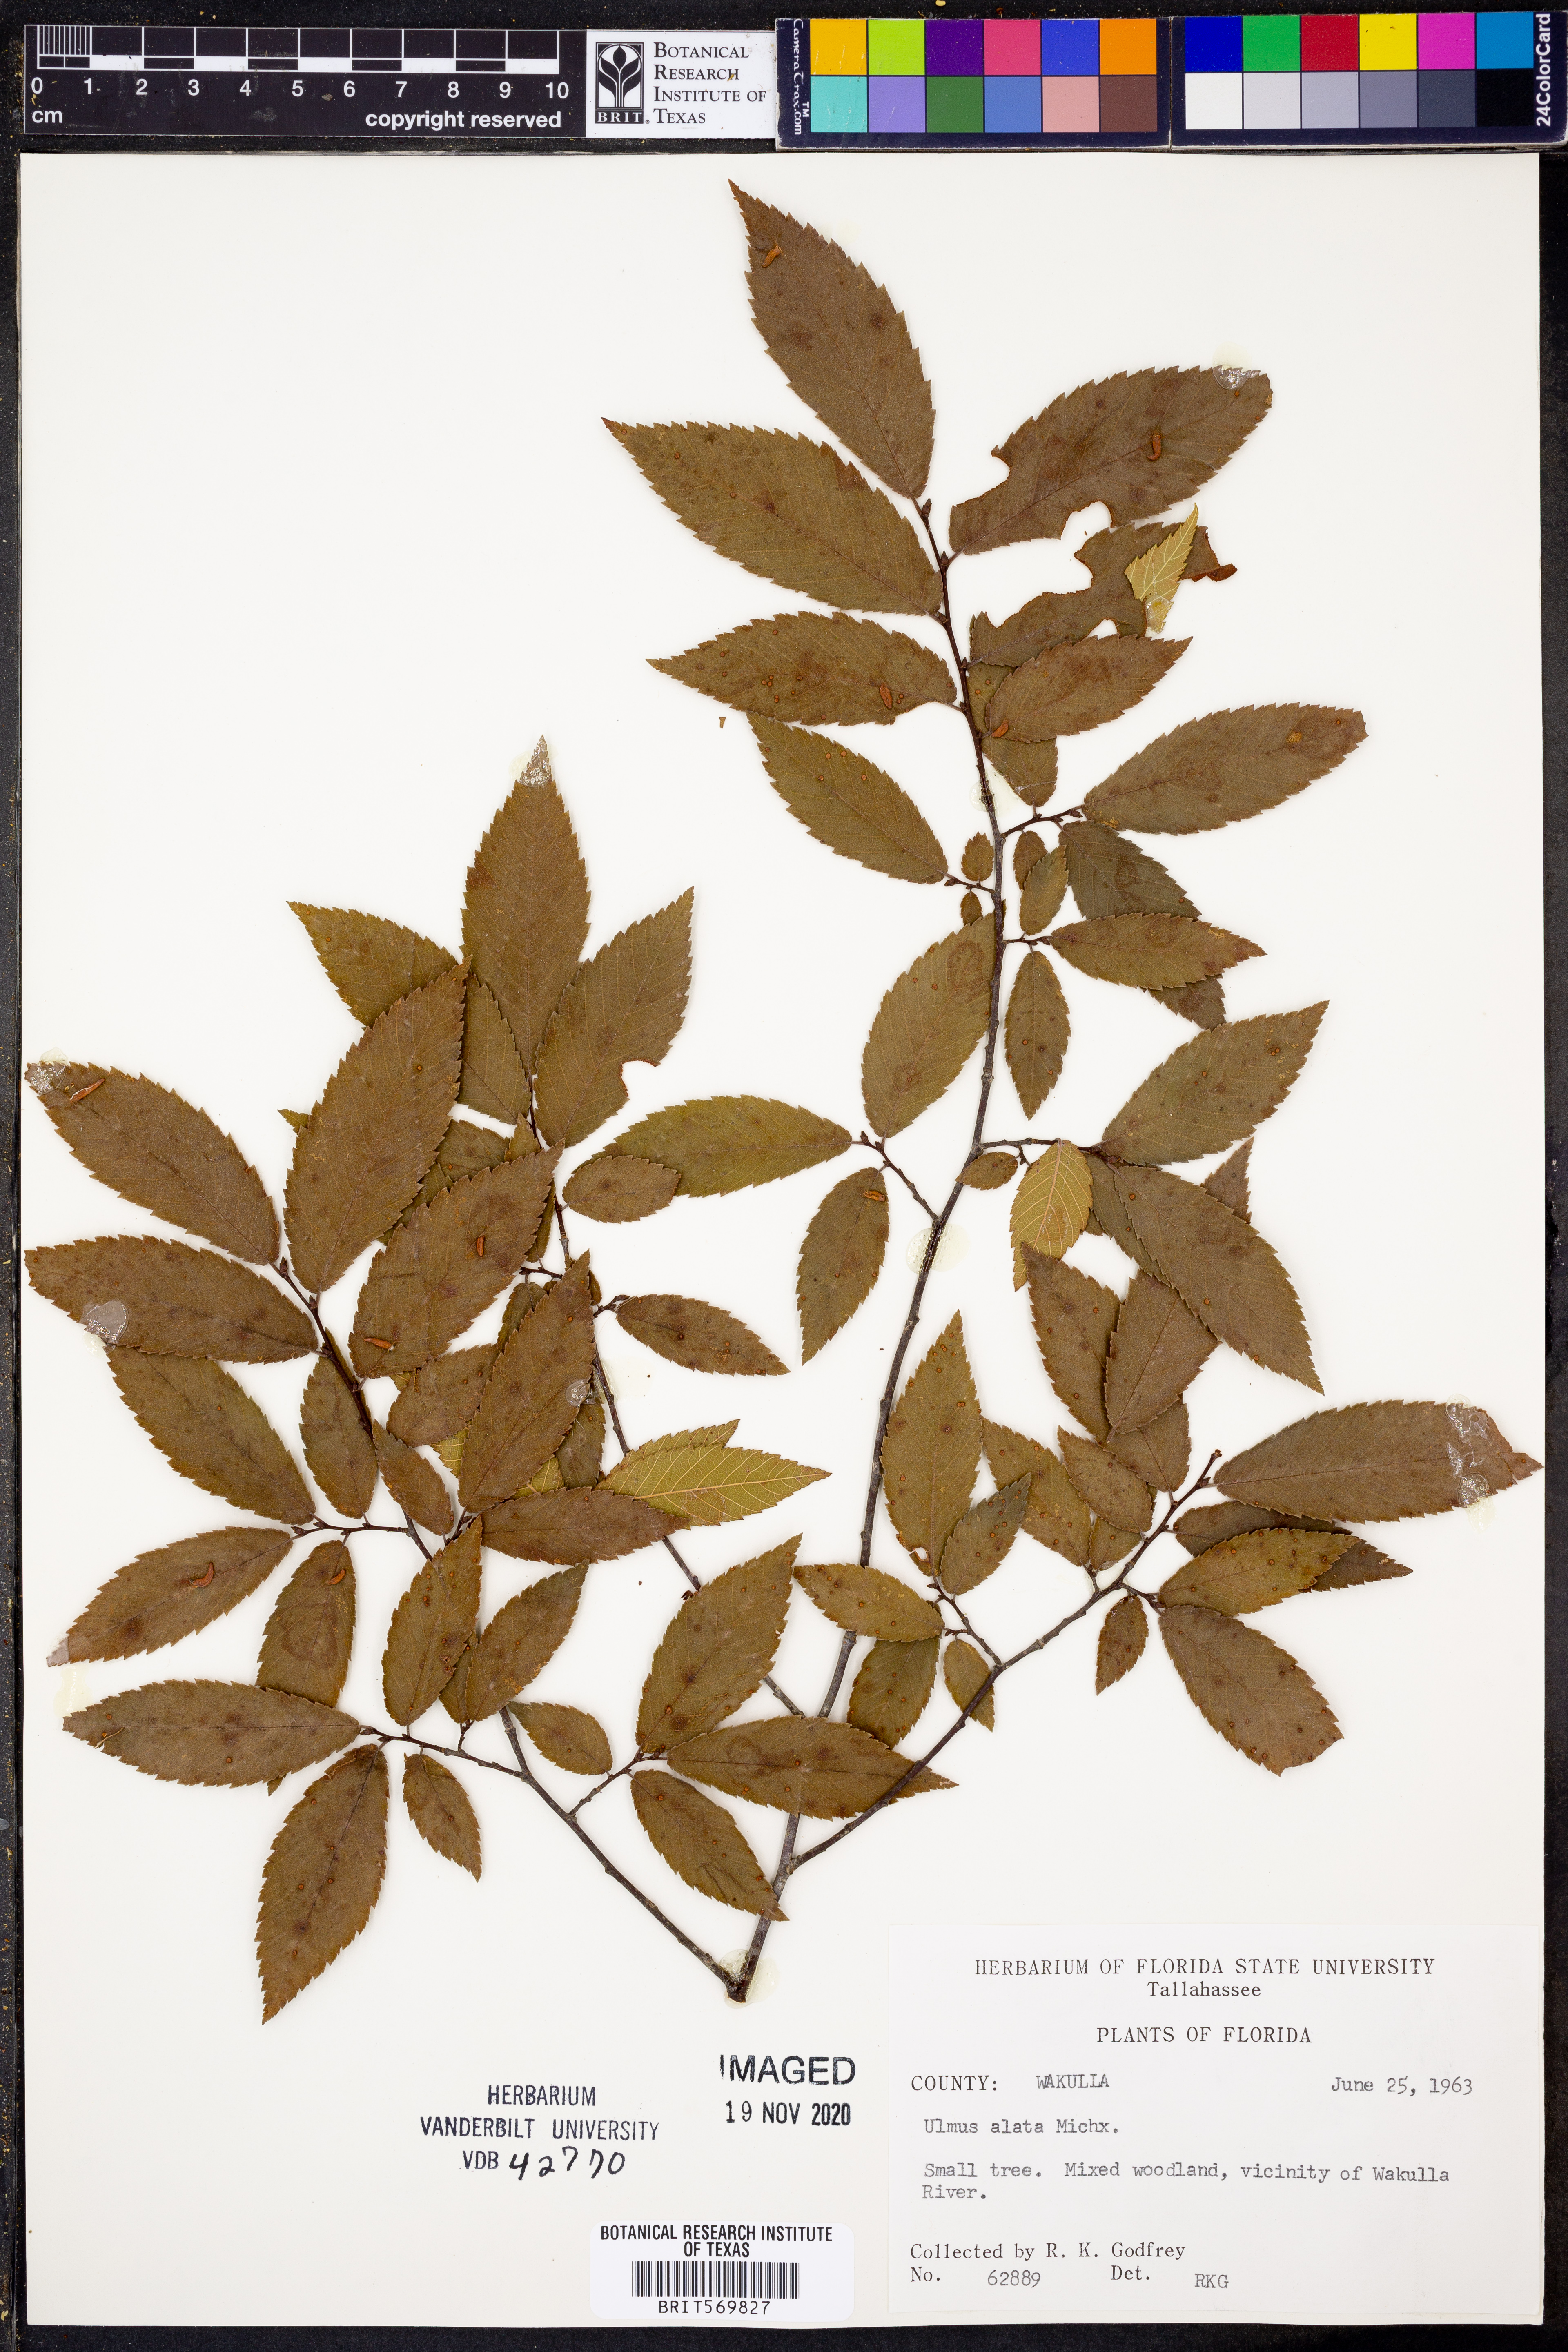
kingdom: Plantae
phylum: Tracheophyta
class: Magnoliopsida
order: Rosales
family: Ulmaceae
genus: Ulmus
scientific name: Ulmus alata
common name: Winged elm
